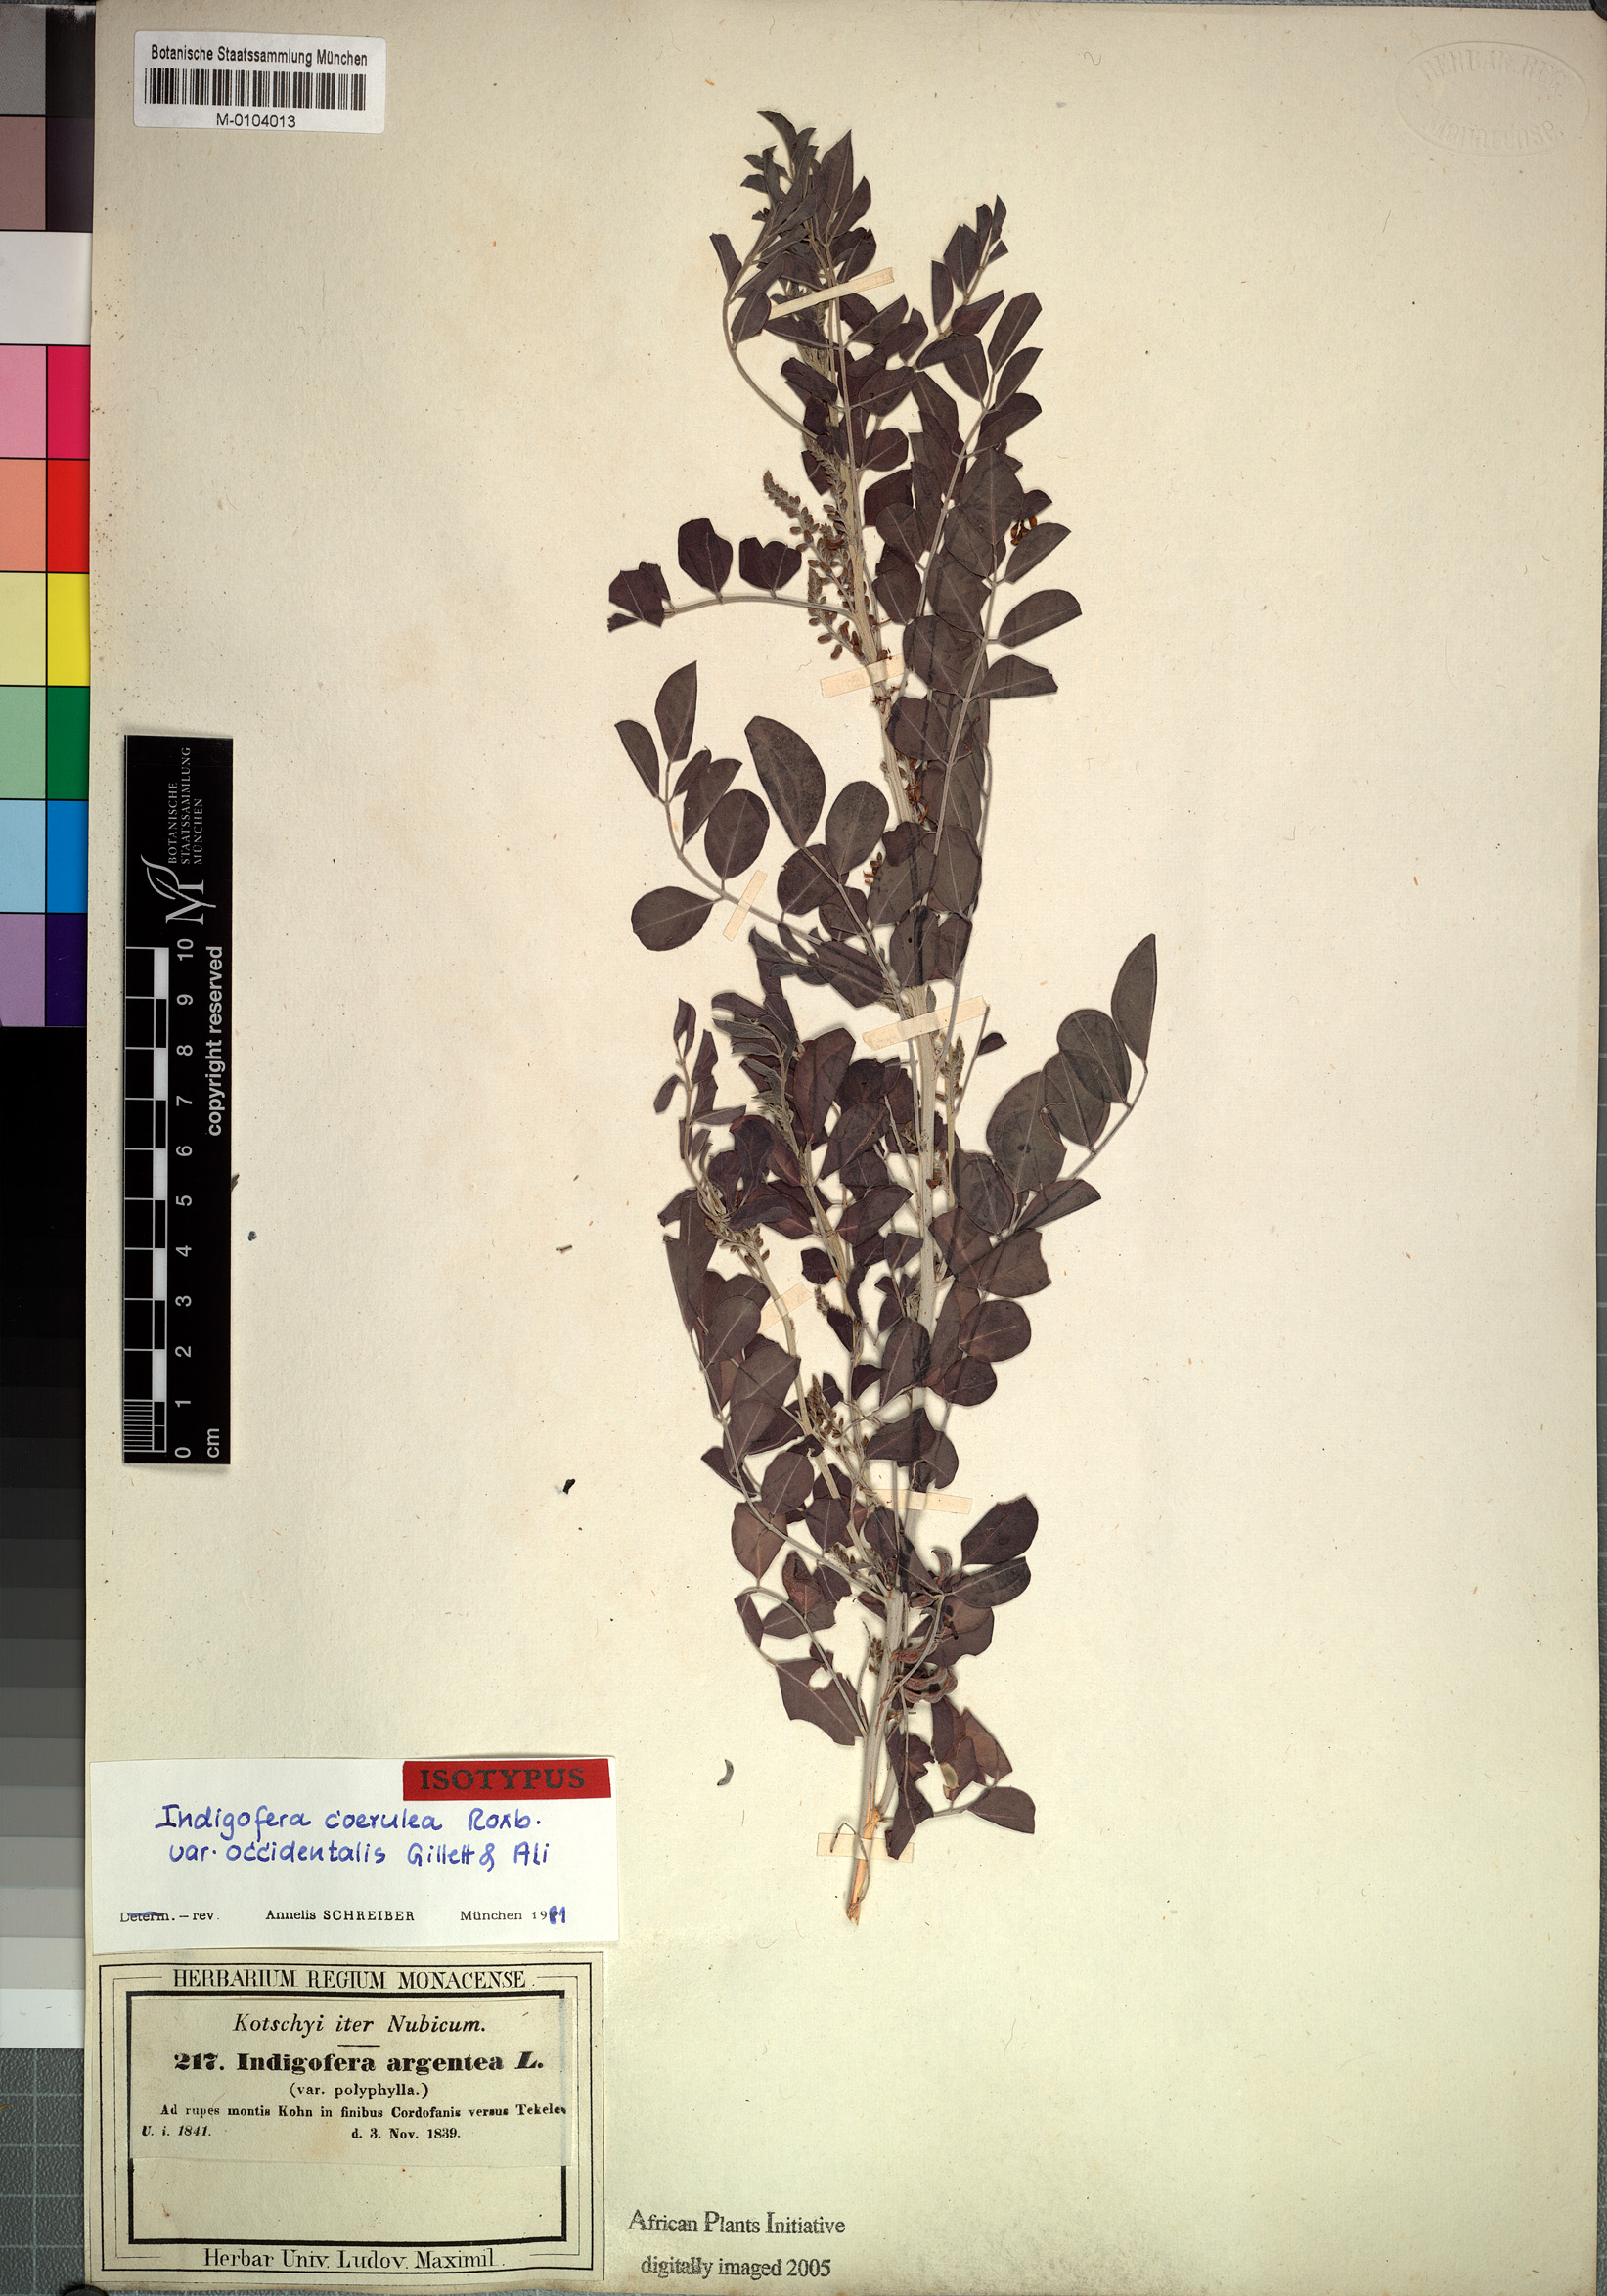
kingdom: Plantae
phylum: Tracheophyta
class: Magnoliopsida
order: Fabales
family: Fabaceae
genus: Indigofera
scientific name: Indigofera coerulea
